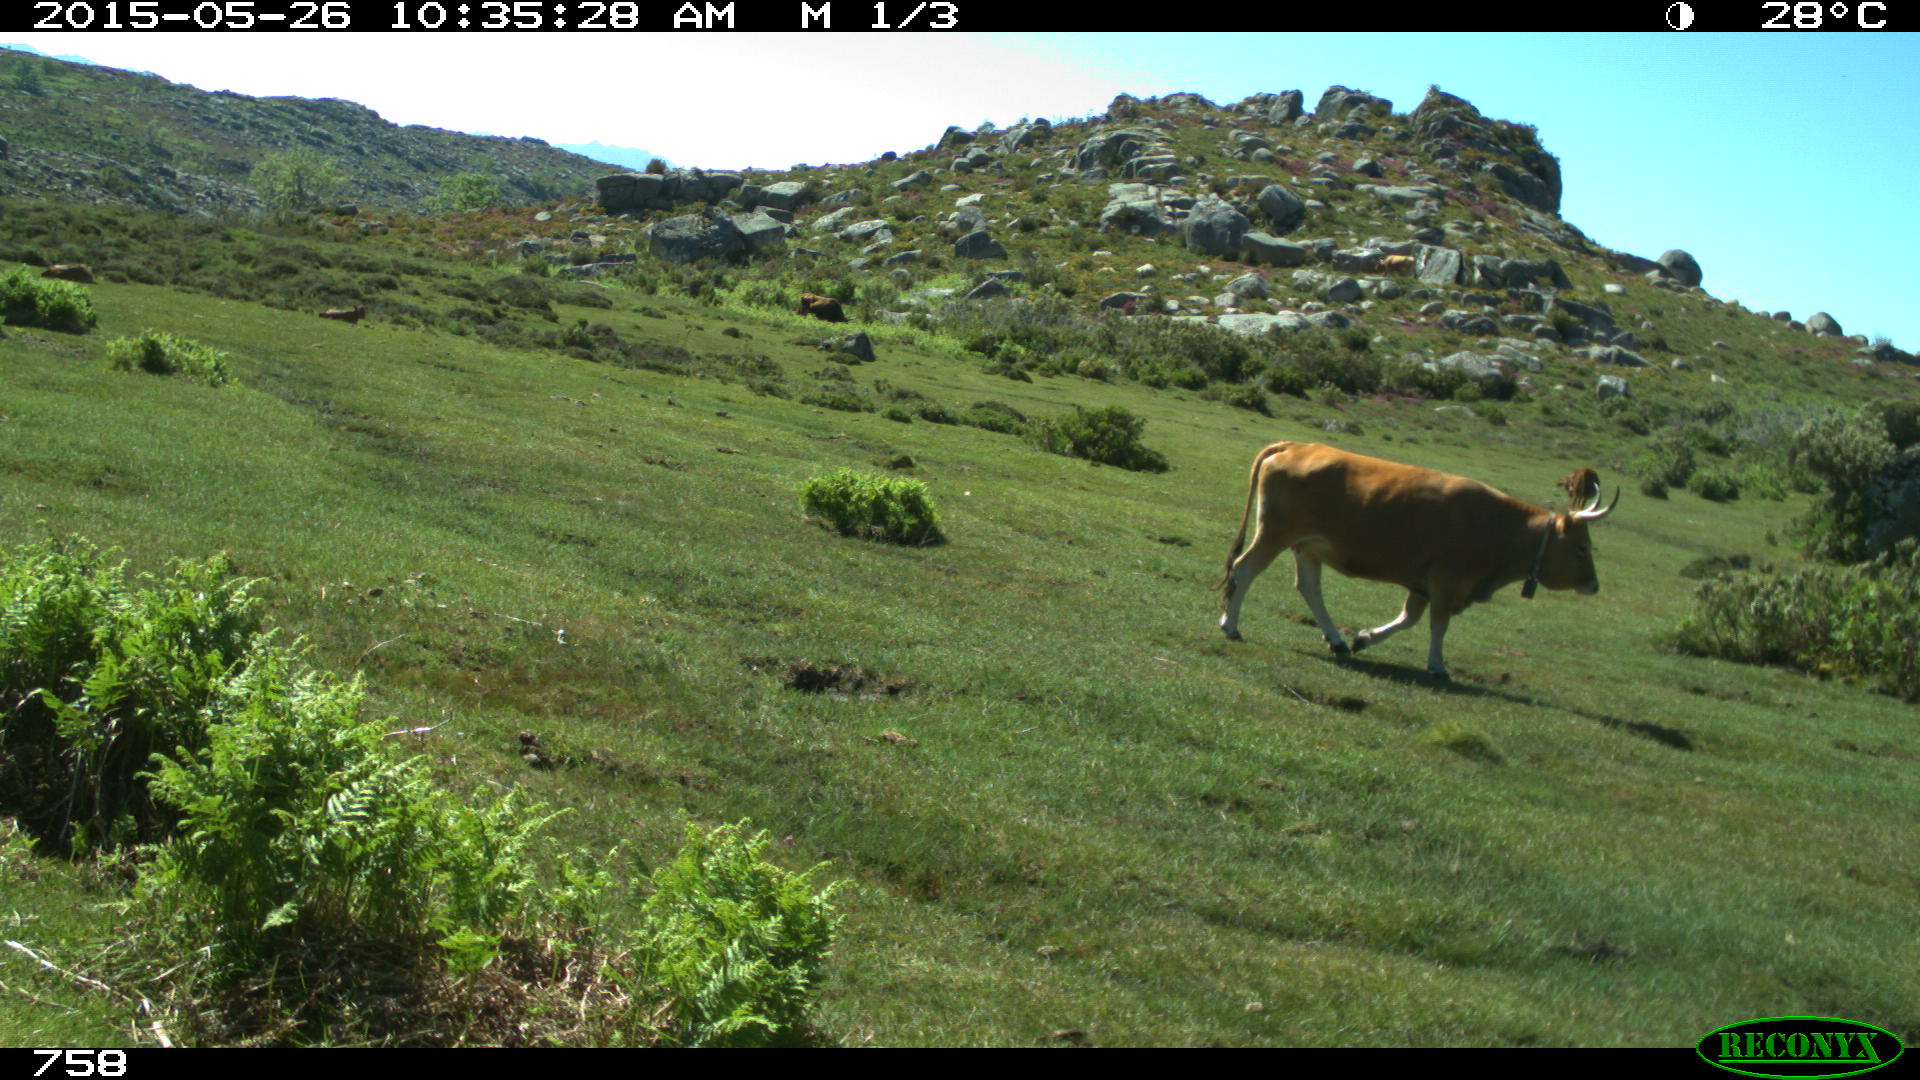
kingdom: Animalia
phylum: Chordata
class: Mammalia
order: Artiodactyla
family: Bovidae
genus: Bos
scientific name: Bos taurus
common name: Domesticated cattle
